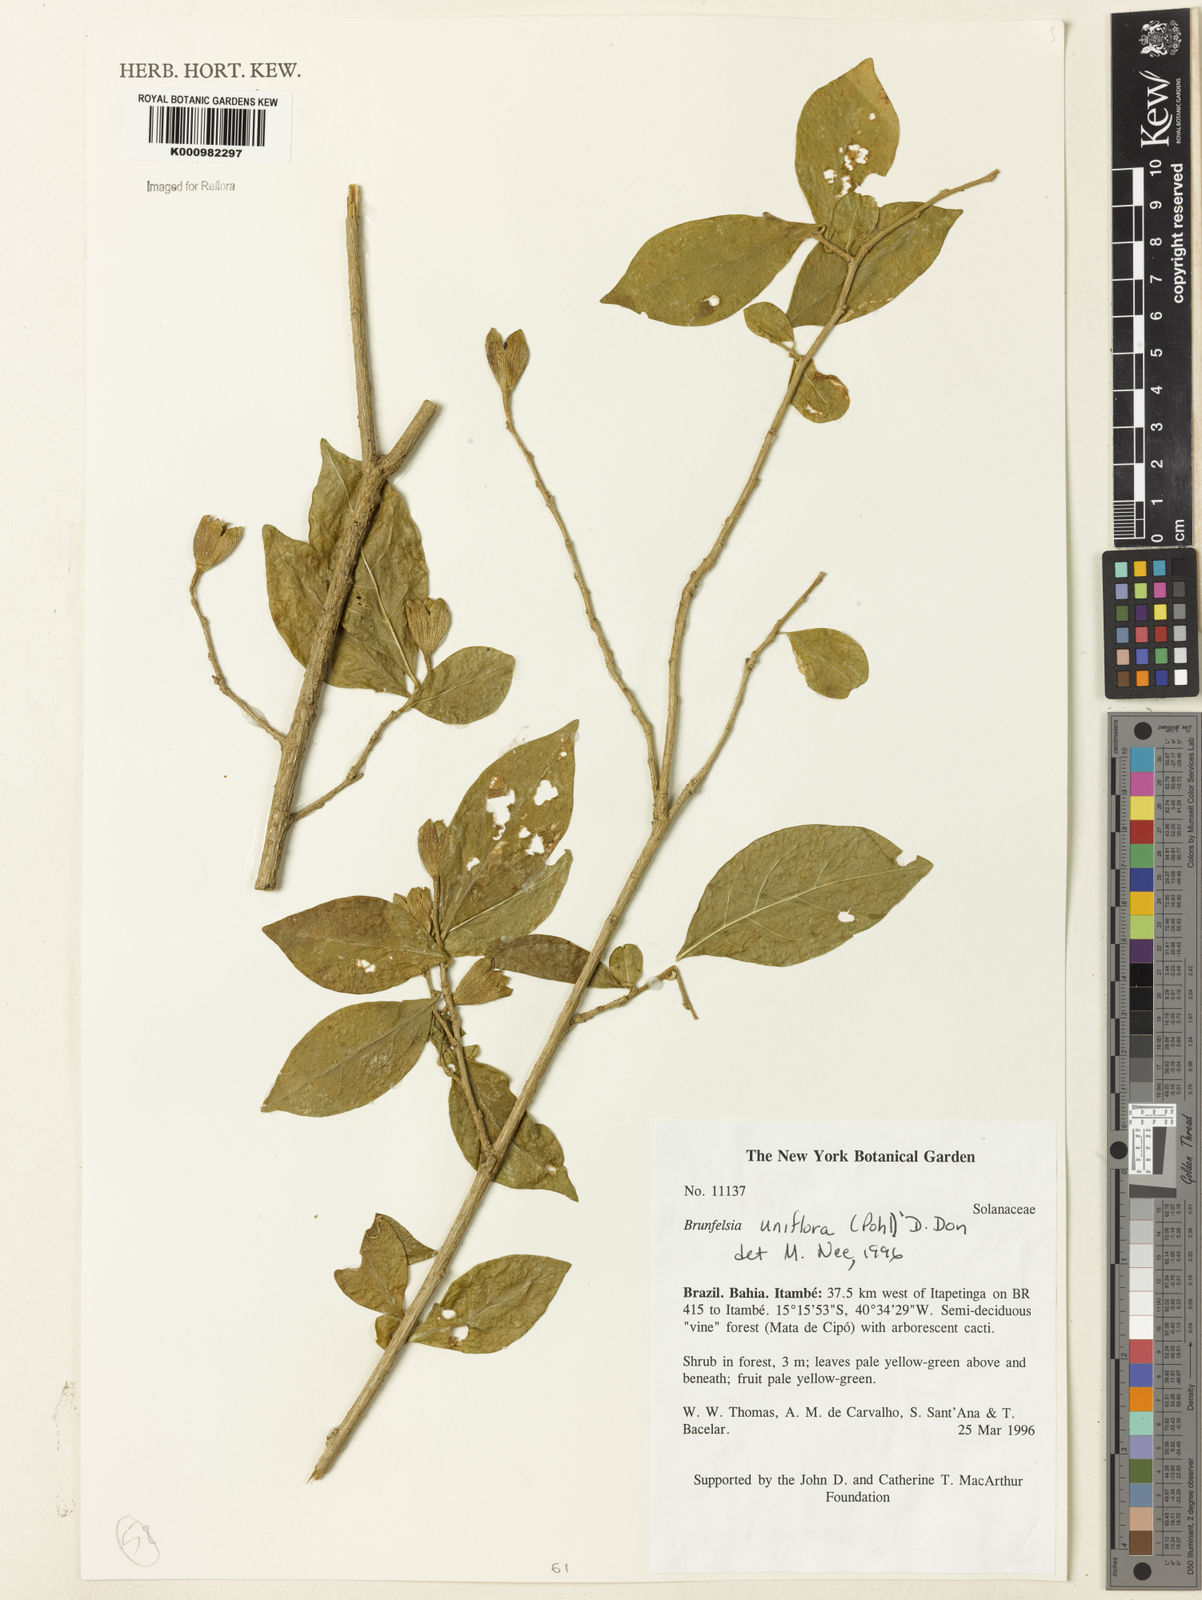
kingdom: Plantae
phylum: Tracheophyta
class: Magnoliopsida
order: Solanales
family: Solanaceae
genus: Brunfelsia
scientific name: Brunfelsia uniflora
